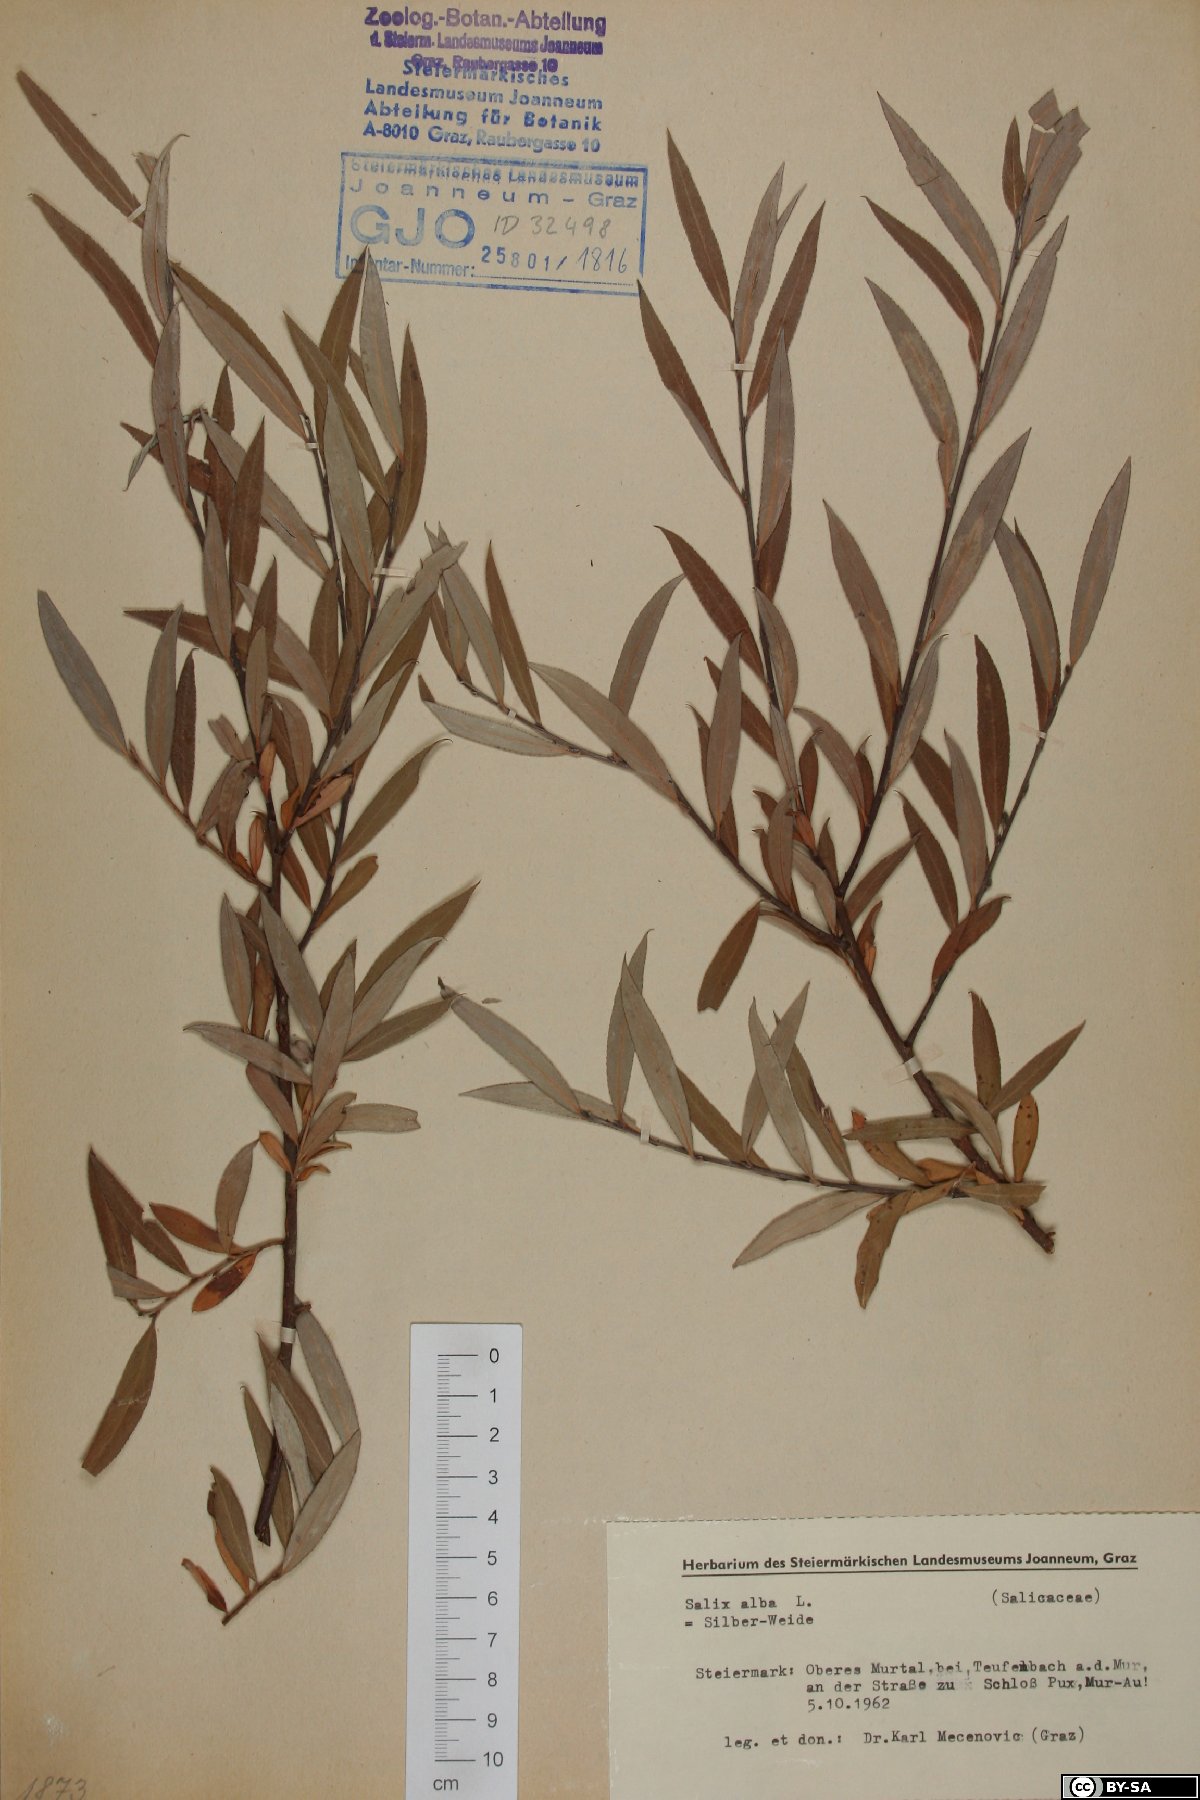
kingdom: Plantae
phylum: Tracheophyta
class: Magnoliopsida
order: Malpighiales
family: Salicaceae
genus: Salix
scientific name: Salix alba
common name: White willow
